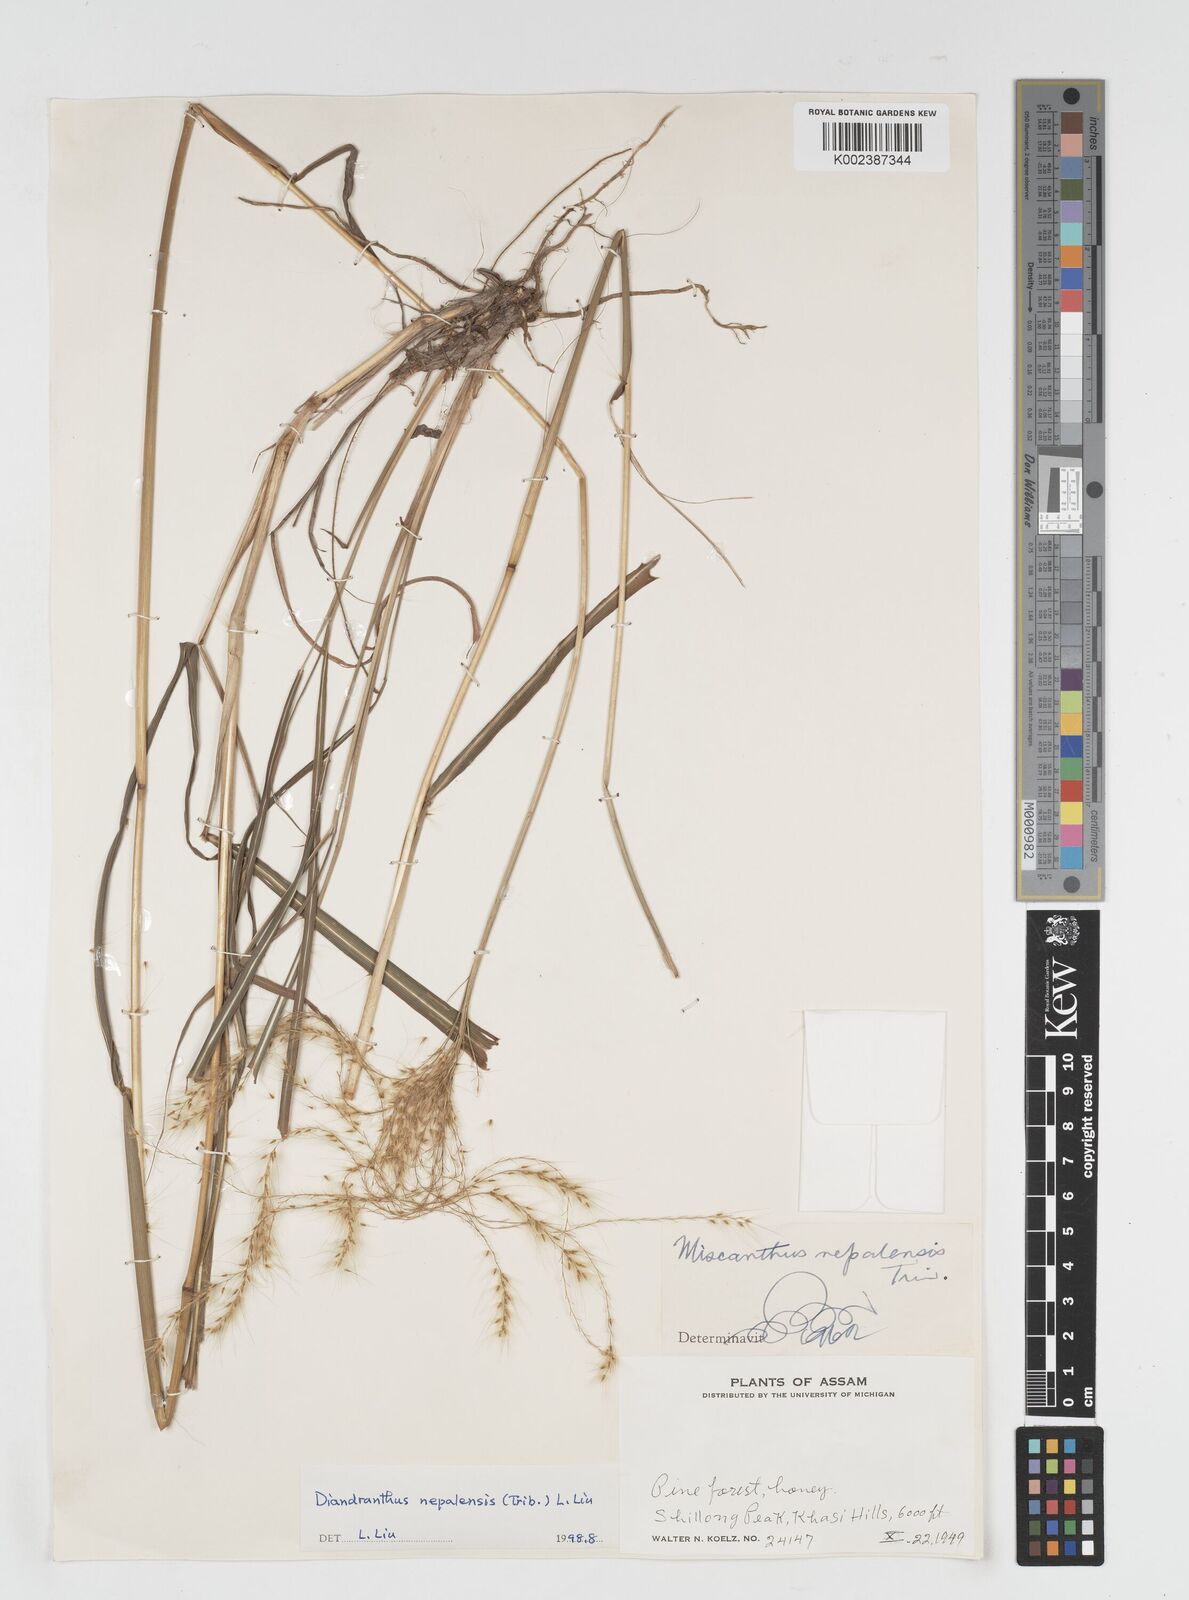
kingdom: Plantae
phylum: Tracheophyta
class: Liliopsida
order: Poales
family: Poaceae
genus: Miscanthus
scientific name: Miscanthus nepalensis
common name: Nepal silver grass
